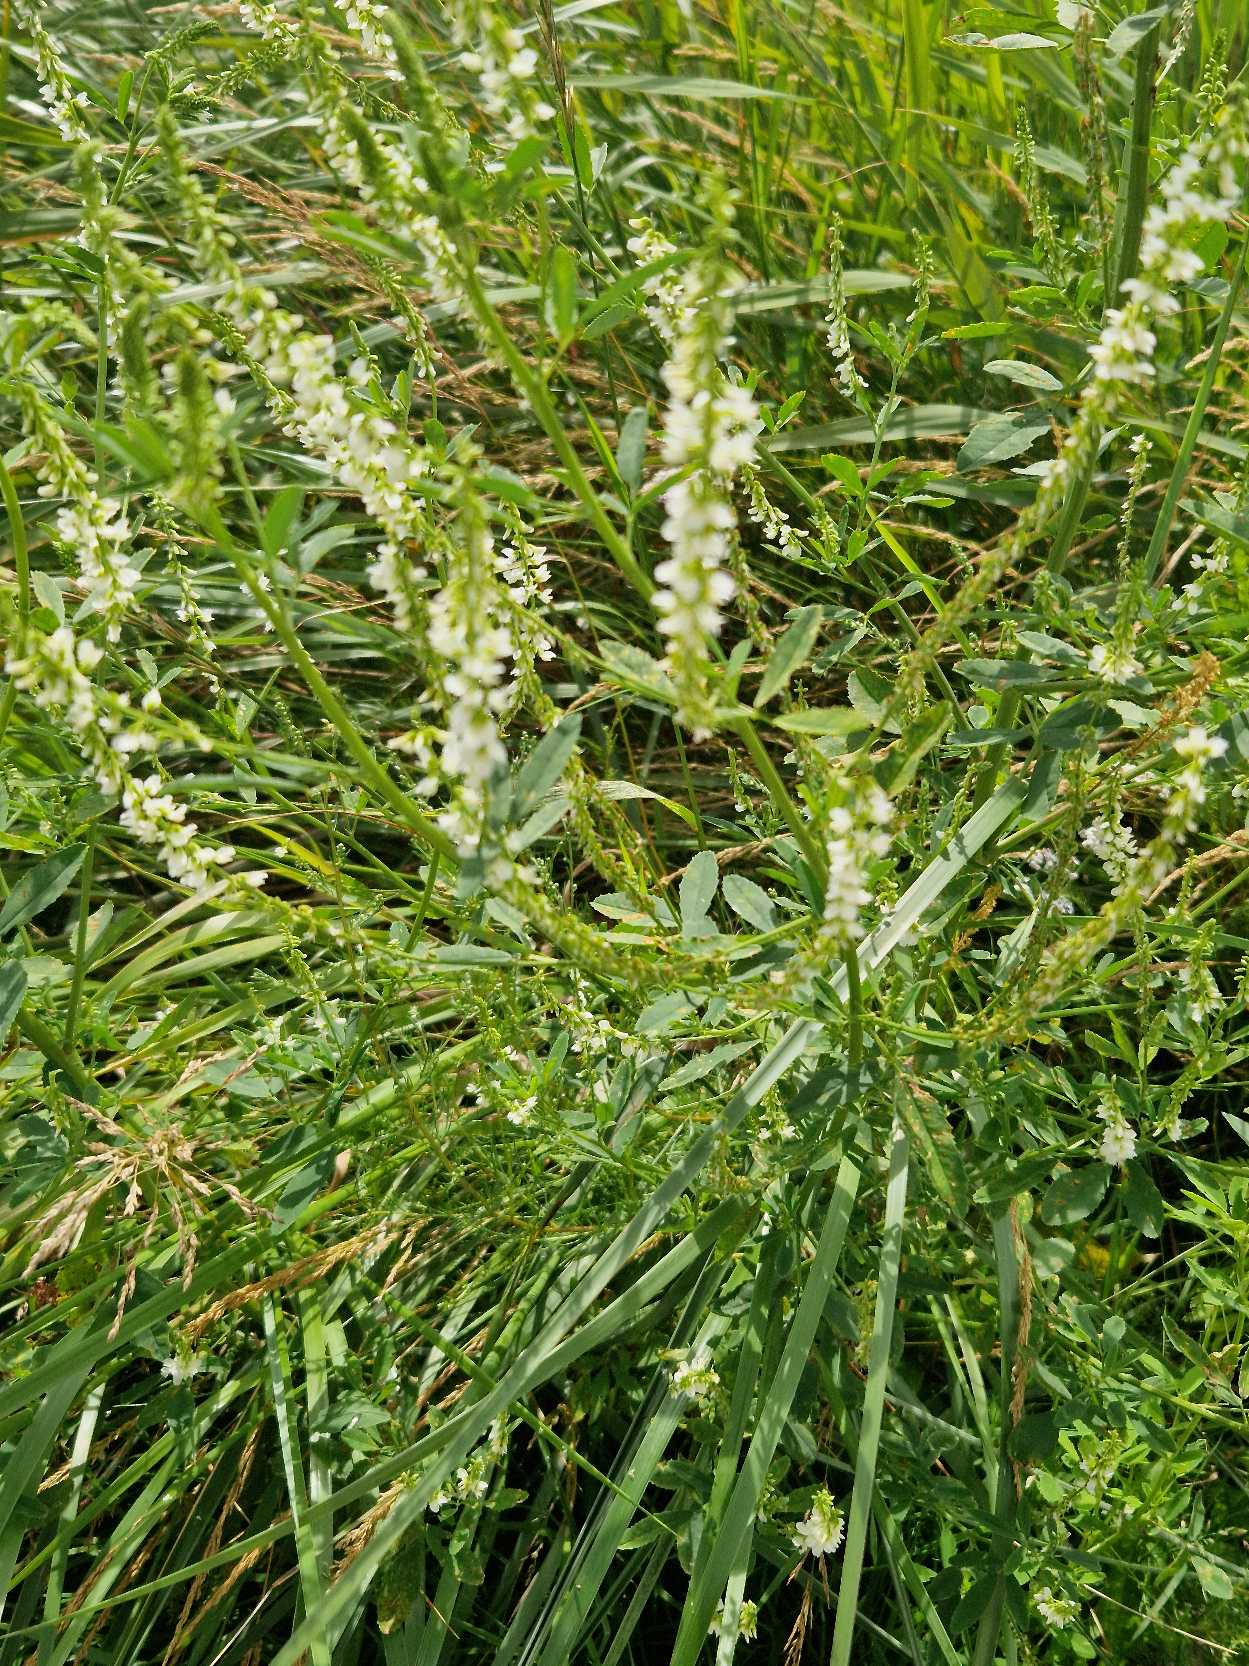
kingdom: Plantae
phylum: Tracheophyta
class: Magnoliopsida
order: Fabales
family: Fabaceae
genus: Melilotus
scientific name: Melilotus albus
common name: Hvid stenkløver
